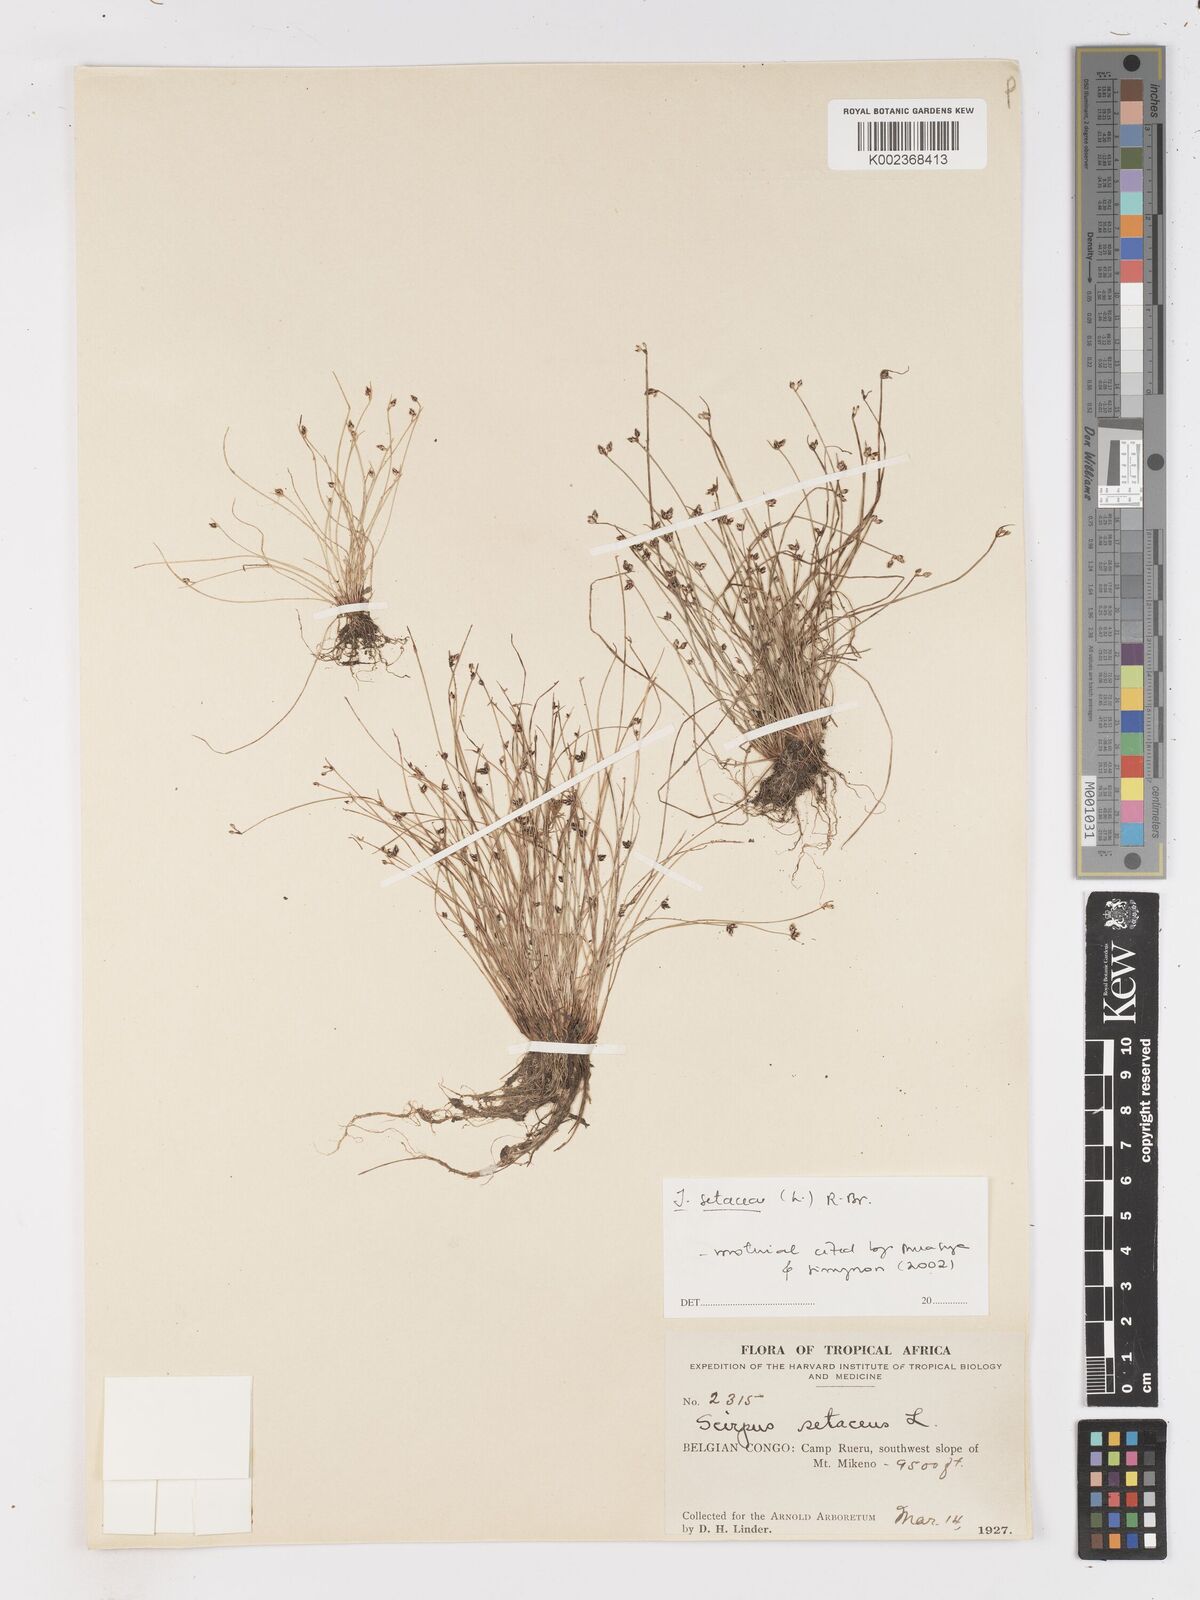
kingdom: Plantae
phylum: Tracheophyta
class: Liliopsida
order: Poales
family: Cyperaceae
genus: Isolepis
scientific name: Isolepis setacea
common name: Bristle club-rush
